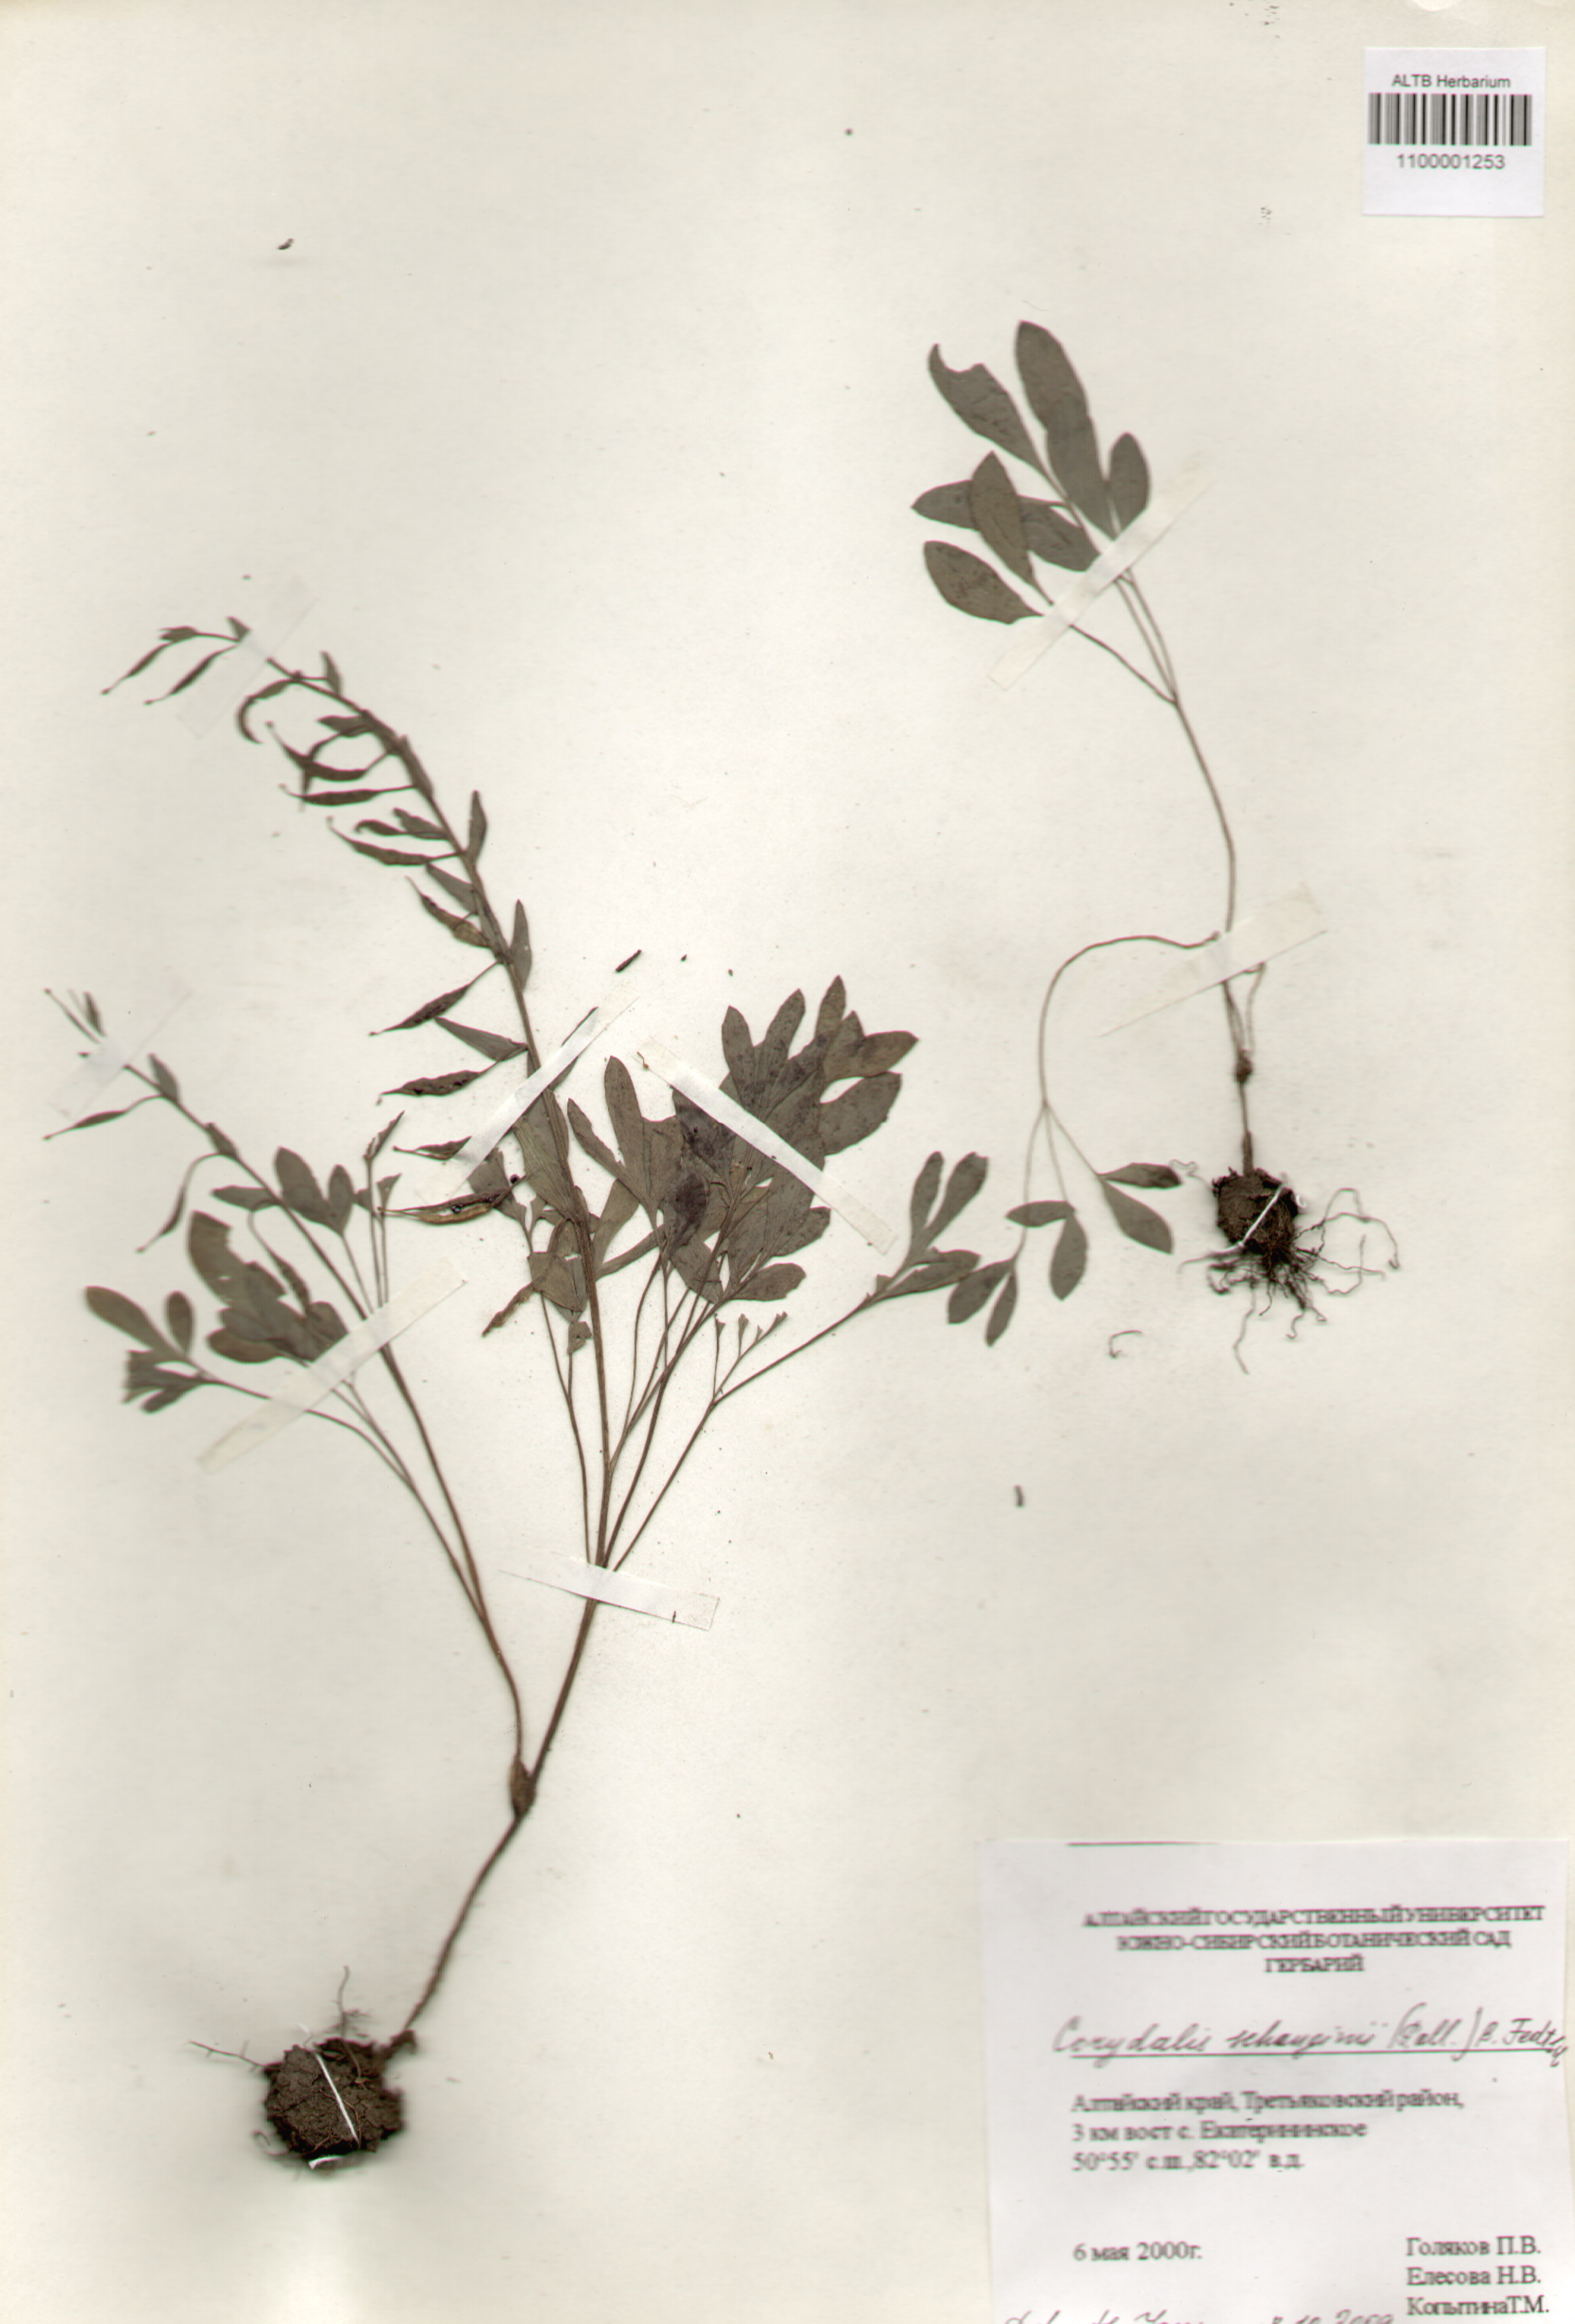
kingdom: Plantae
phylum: Tracheophyta
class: Magnoliopsida
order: Ranunculales
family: Papaveraceae
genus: Corydalis
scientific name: Corydalis schanginii
